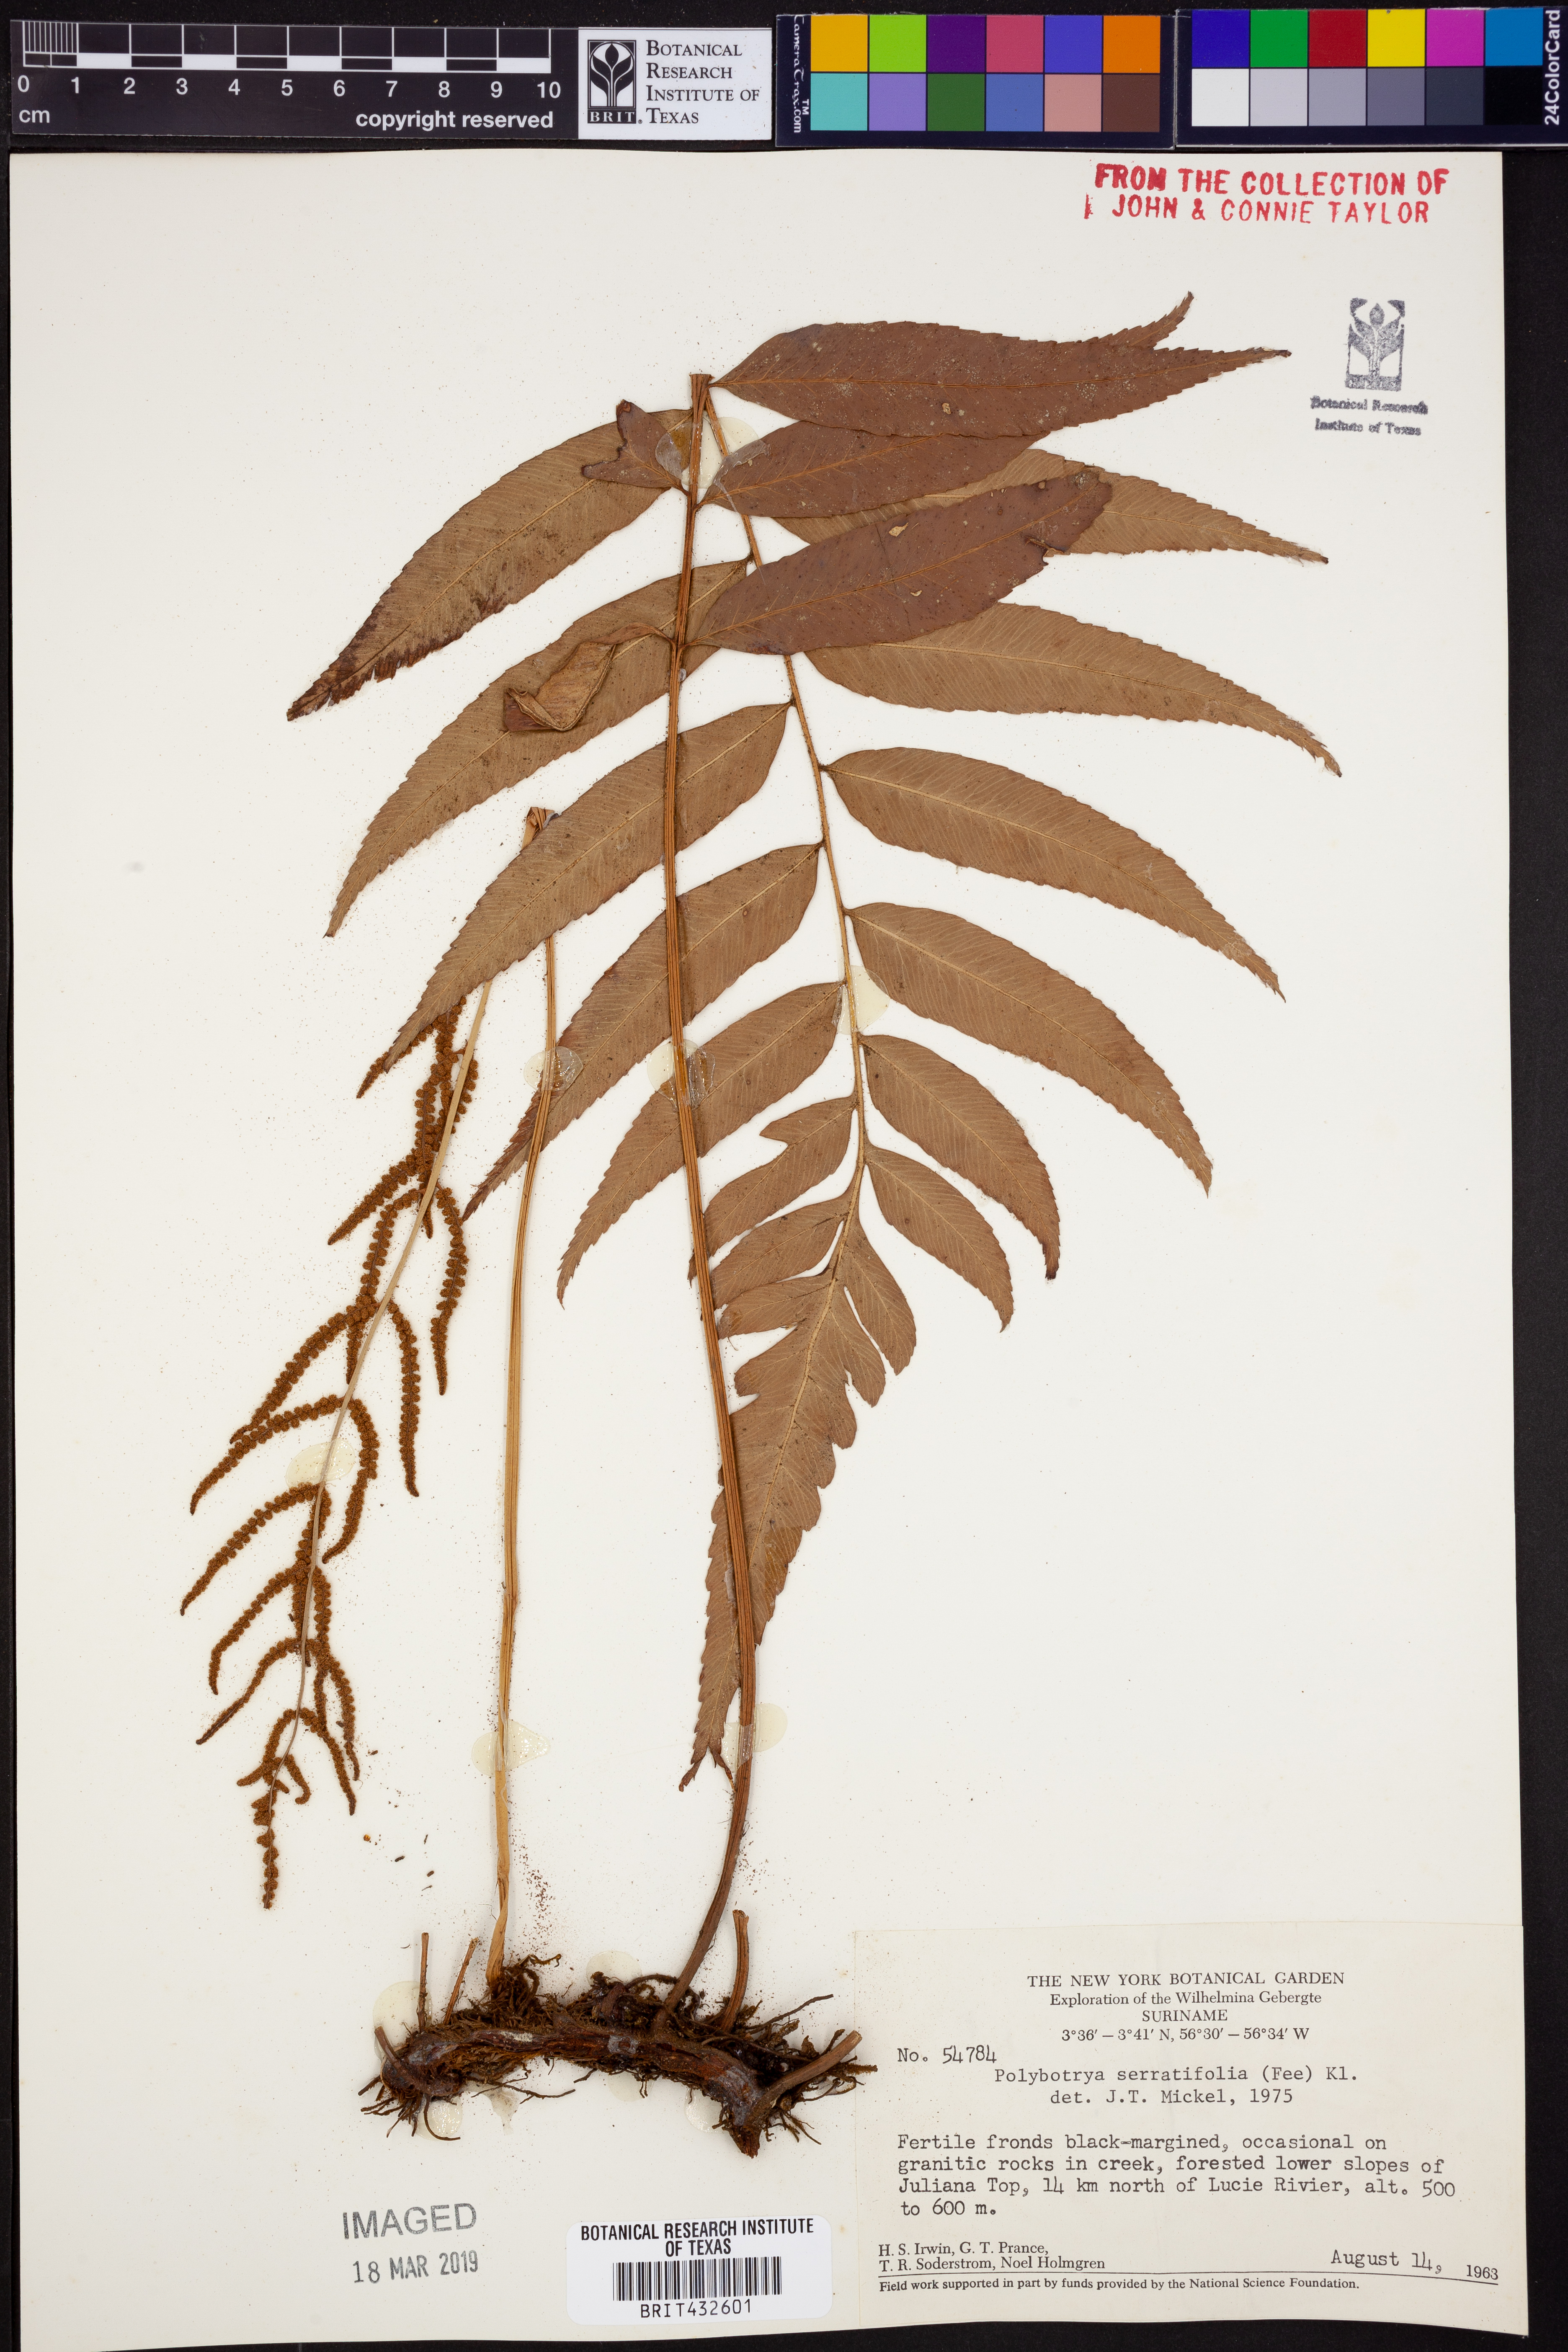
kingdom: Plantae
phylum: Tracheophyta
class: Polypodiopsida
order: Polypodiales
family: Dryopteridaceae
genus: Polybotrya
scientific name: Polybotrya serratifolia
